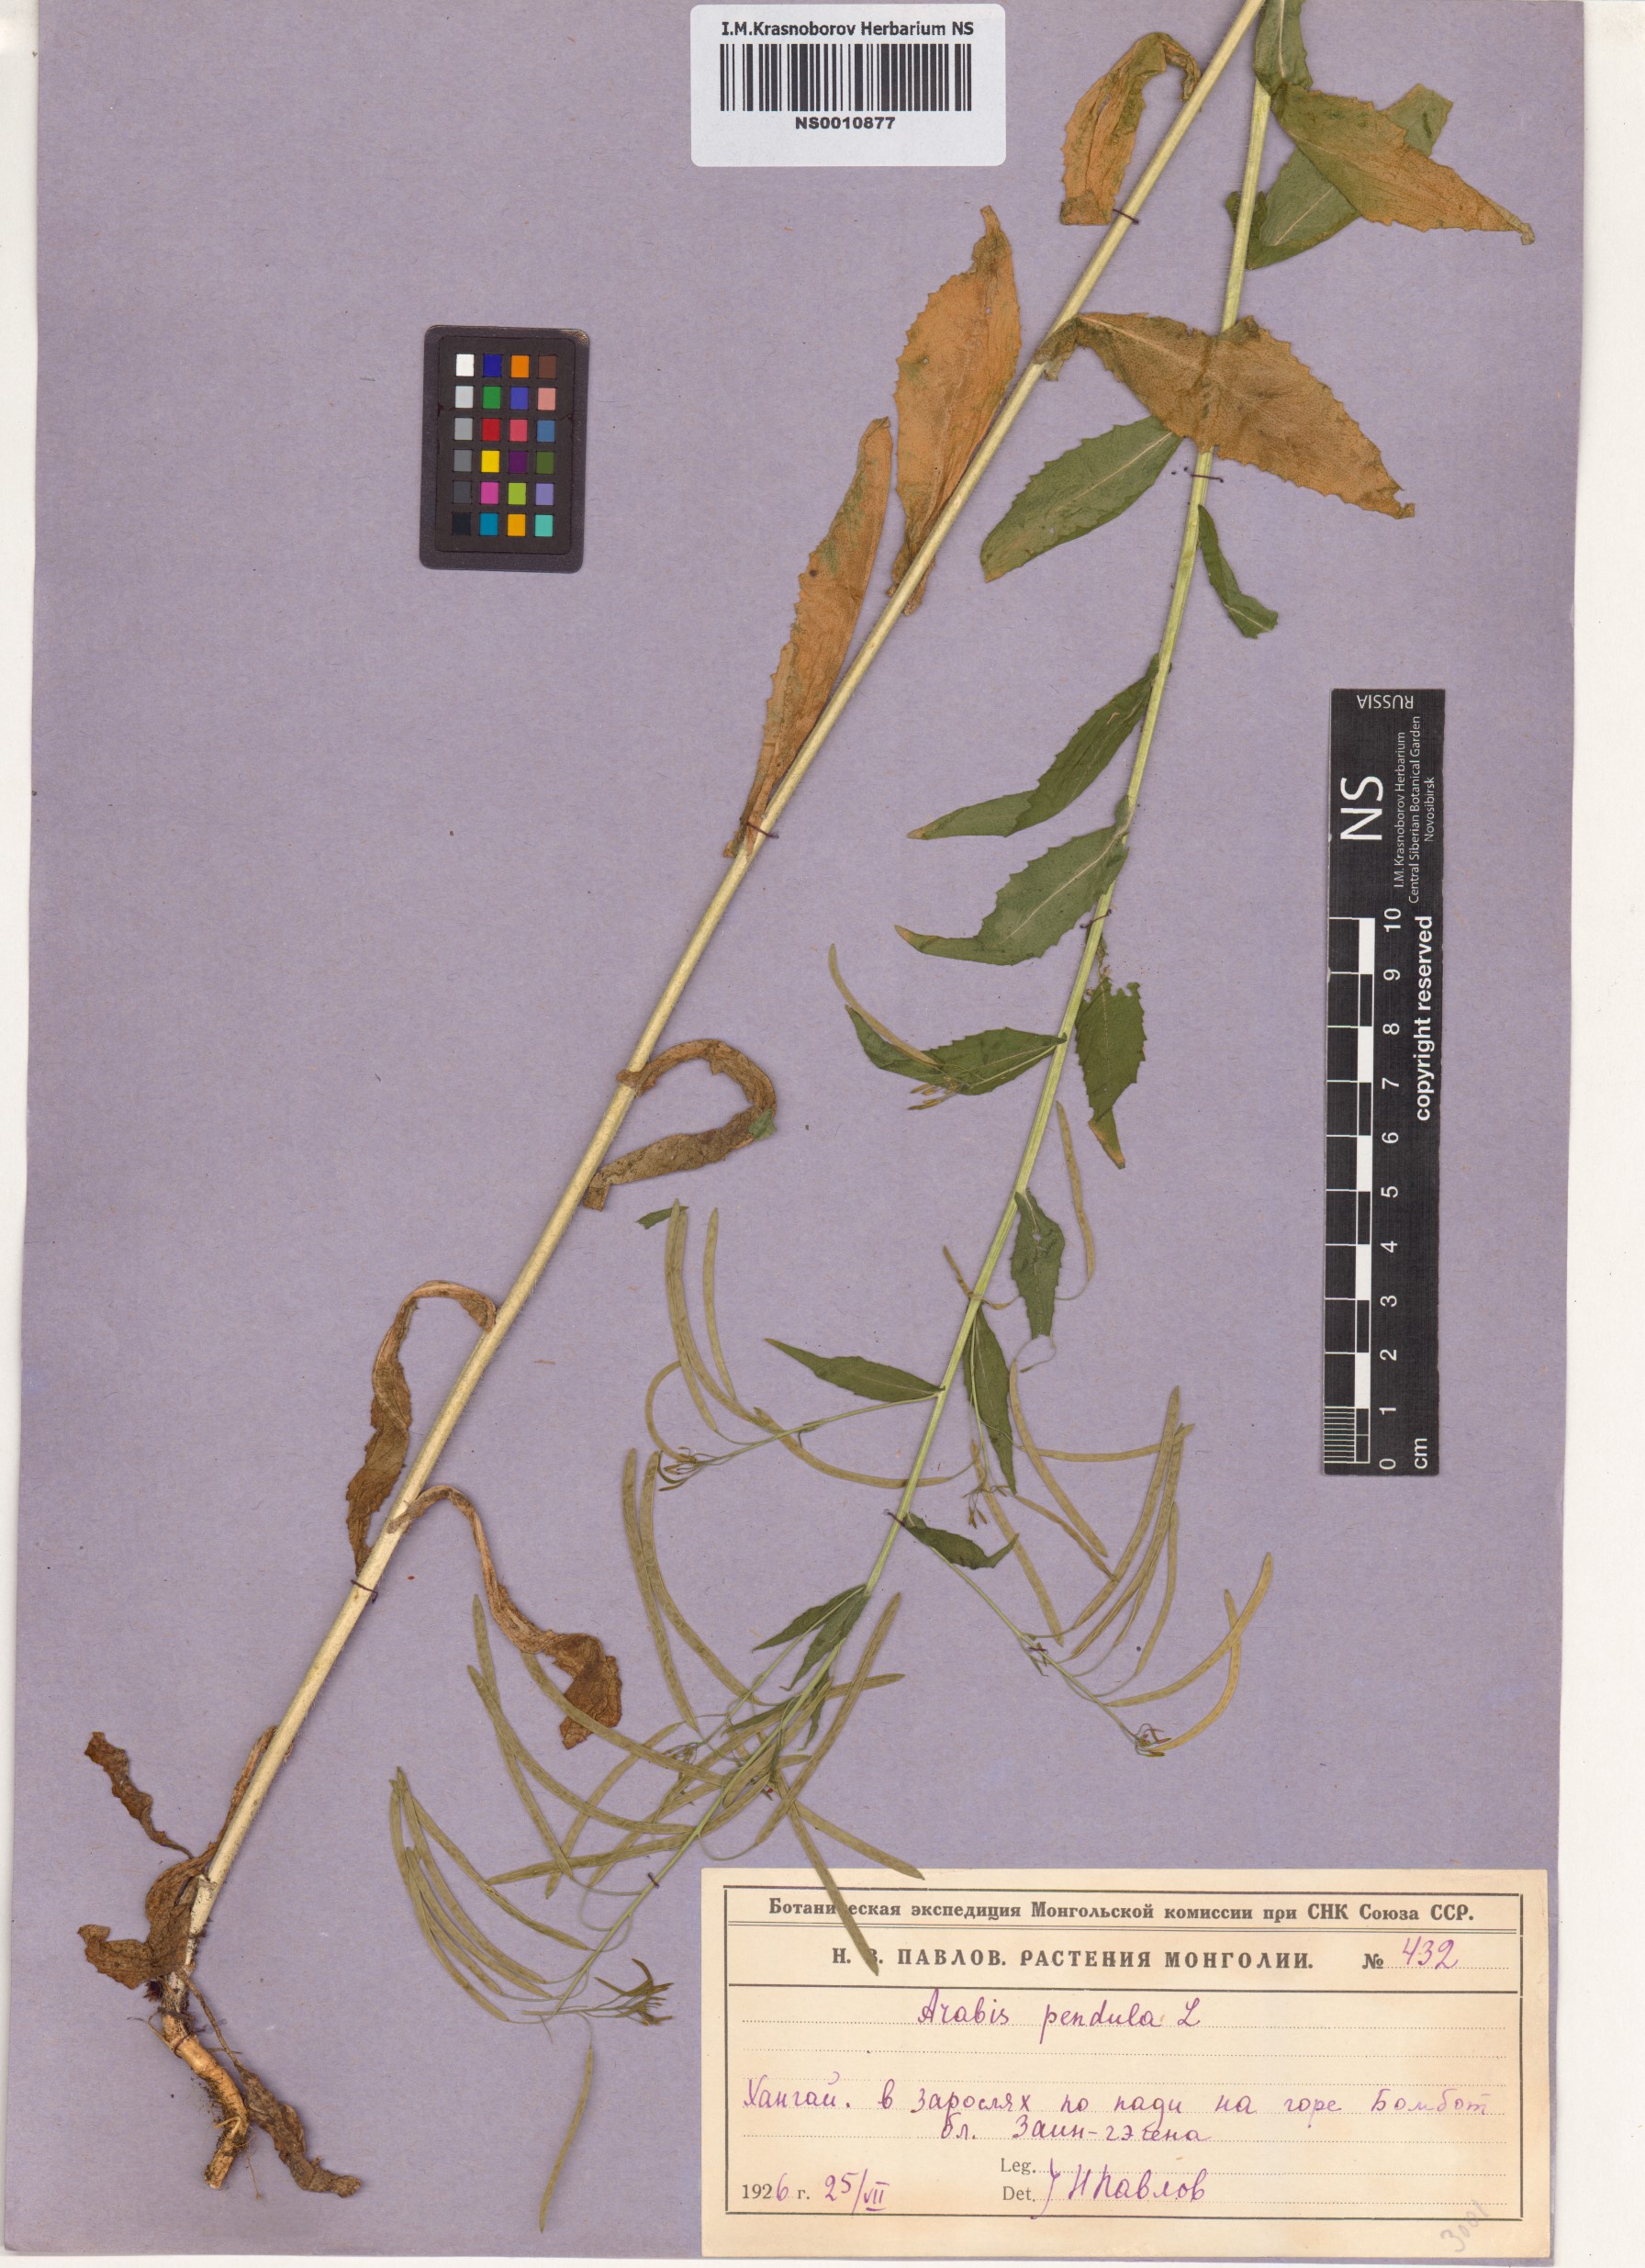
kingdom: Plantae
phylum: Tracheophyta
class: Magnoliopsida
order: Brassicales
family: Brassicaceae
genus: Catolobus
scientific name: Catolobus pendulus
